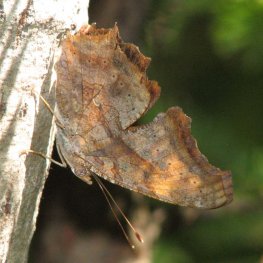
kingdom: Animalia
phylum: Arthropoda
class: Insecta
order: Lepidoptera
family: Nymphalidae
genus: Polygonia
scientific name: Polygonia interrogationis
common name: Question Mark
